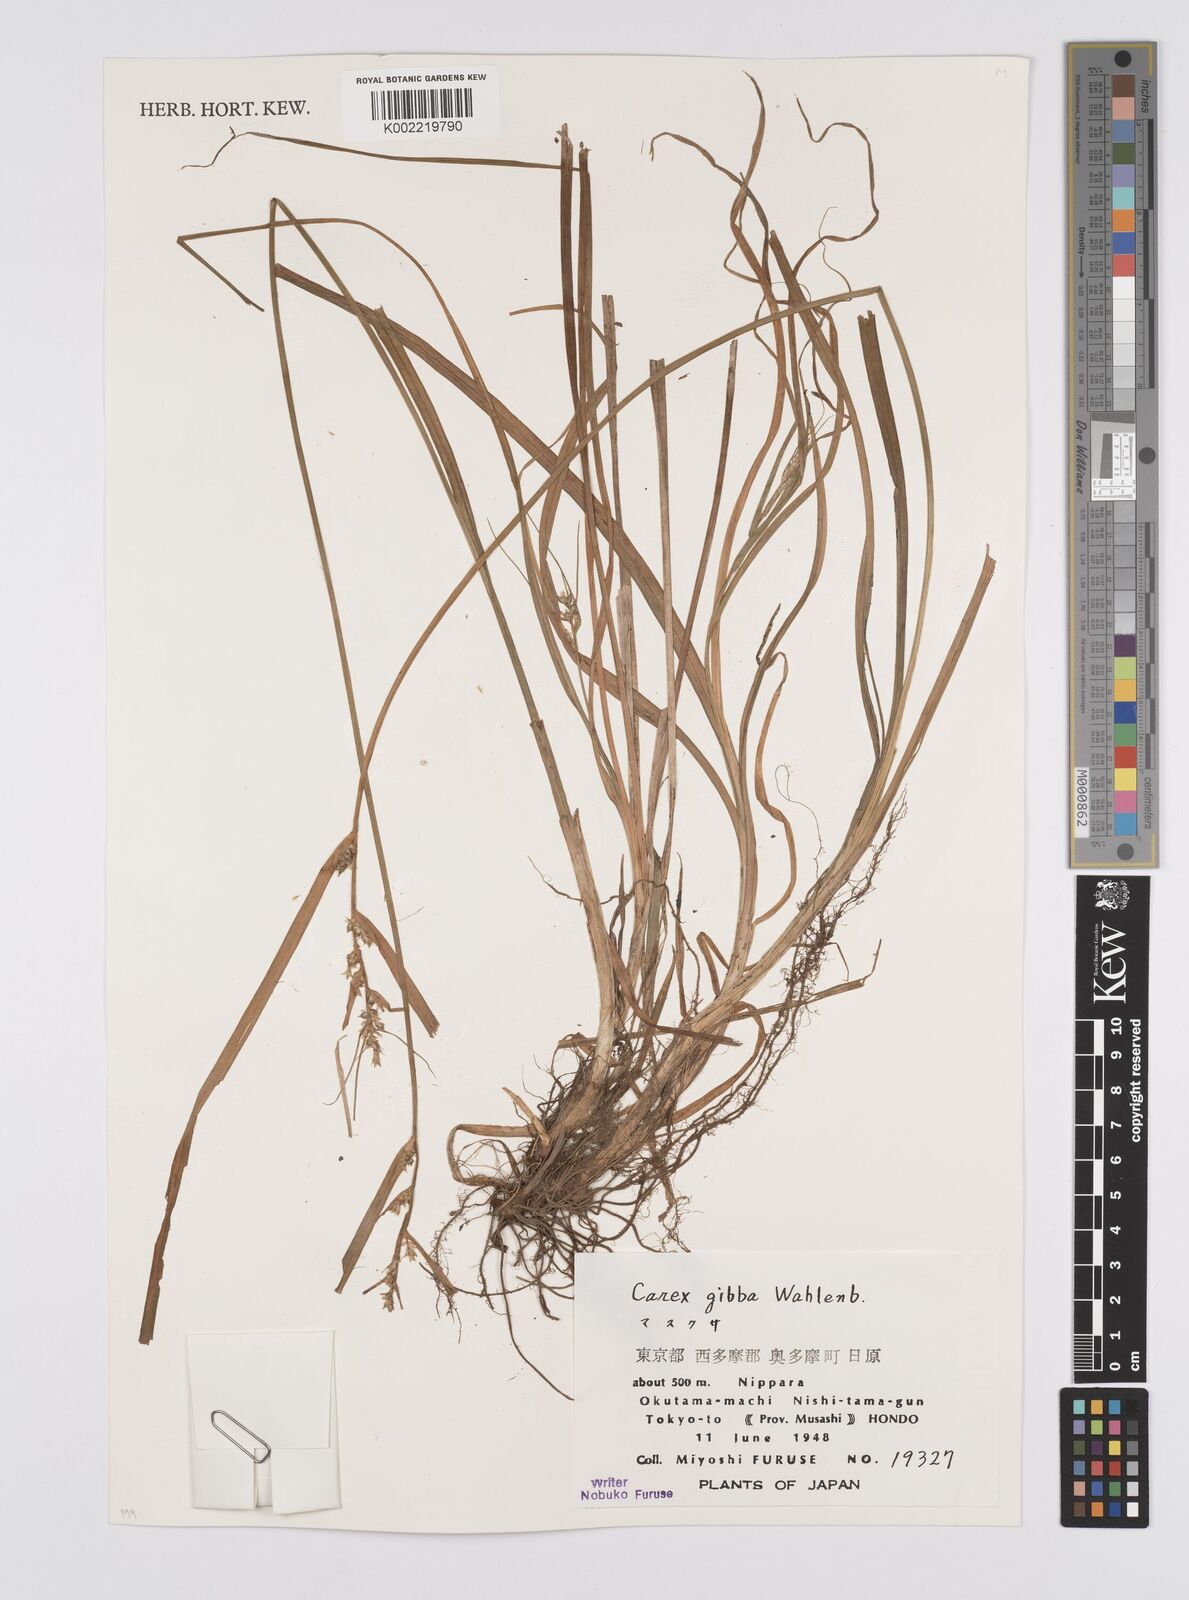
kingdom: Plantae
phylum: Tracheophyta
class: Liliopsida
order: Poales
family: Cyperaceae
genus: Carex
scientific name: Carex gibba
